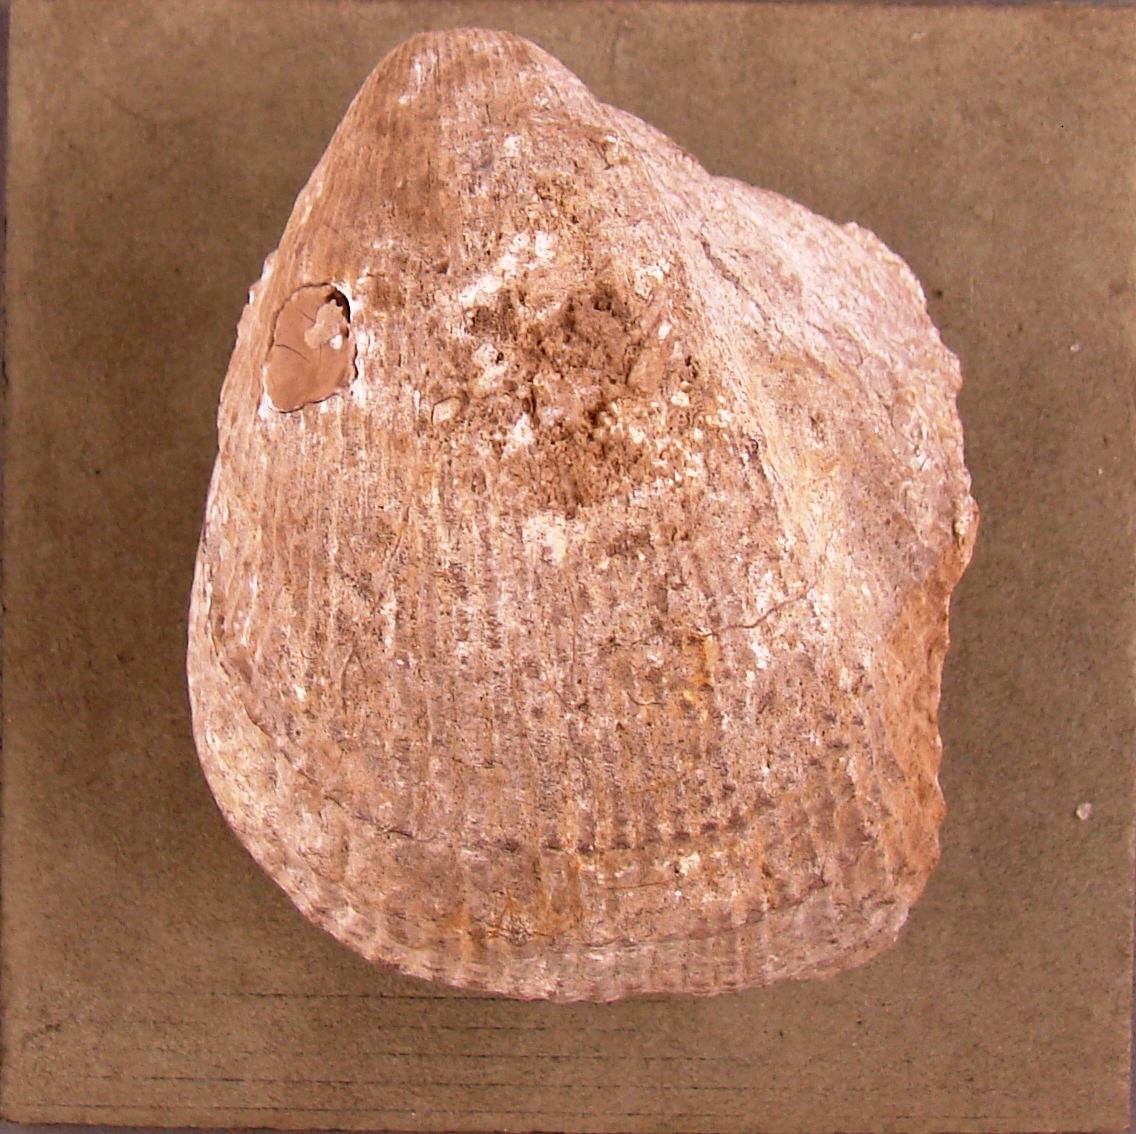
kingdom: Animalia
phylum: Mollusca
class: Bivalvia
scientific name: Bivalvia
